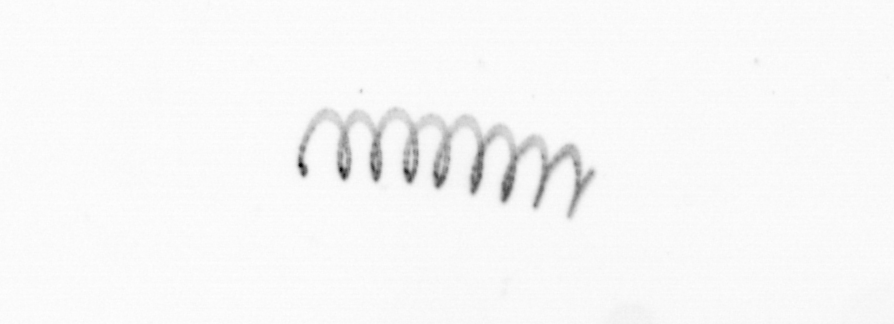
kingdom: Chromista
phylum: Ochrophyta
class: Bacillariophyceae
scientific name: Bacillariophyceae
